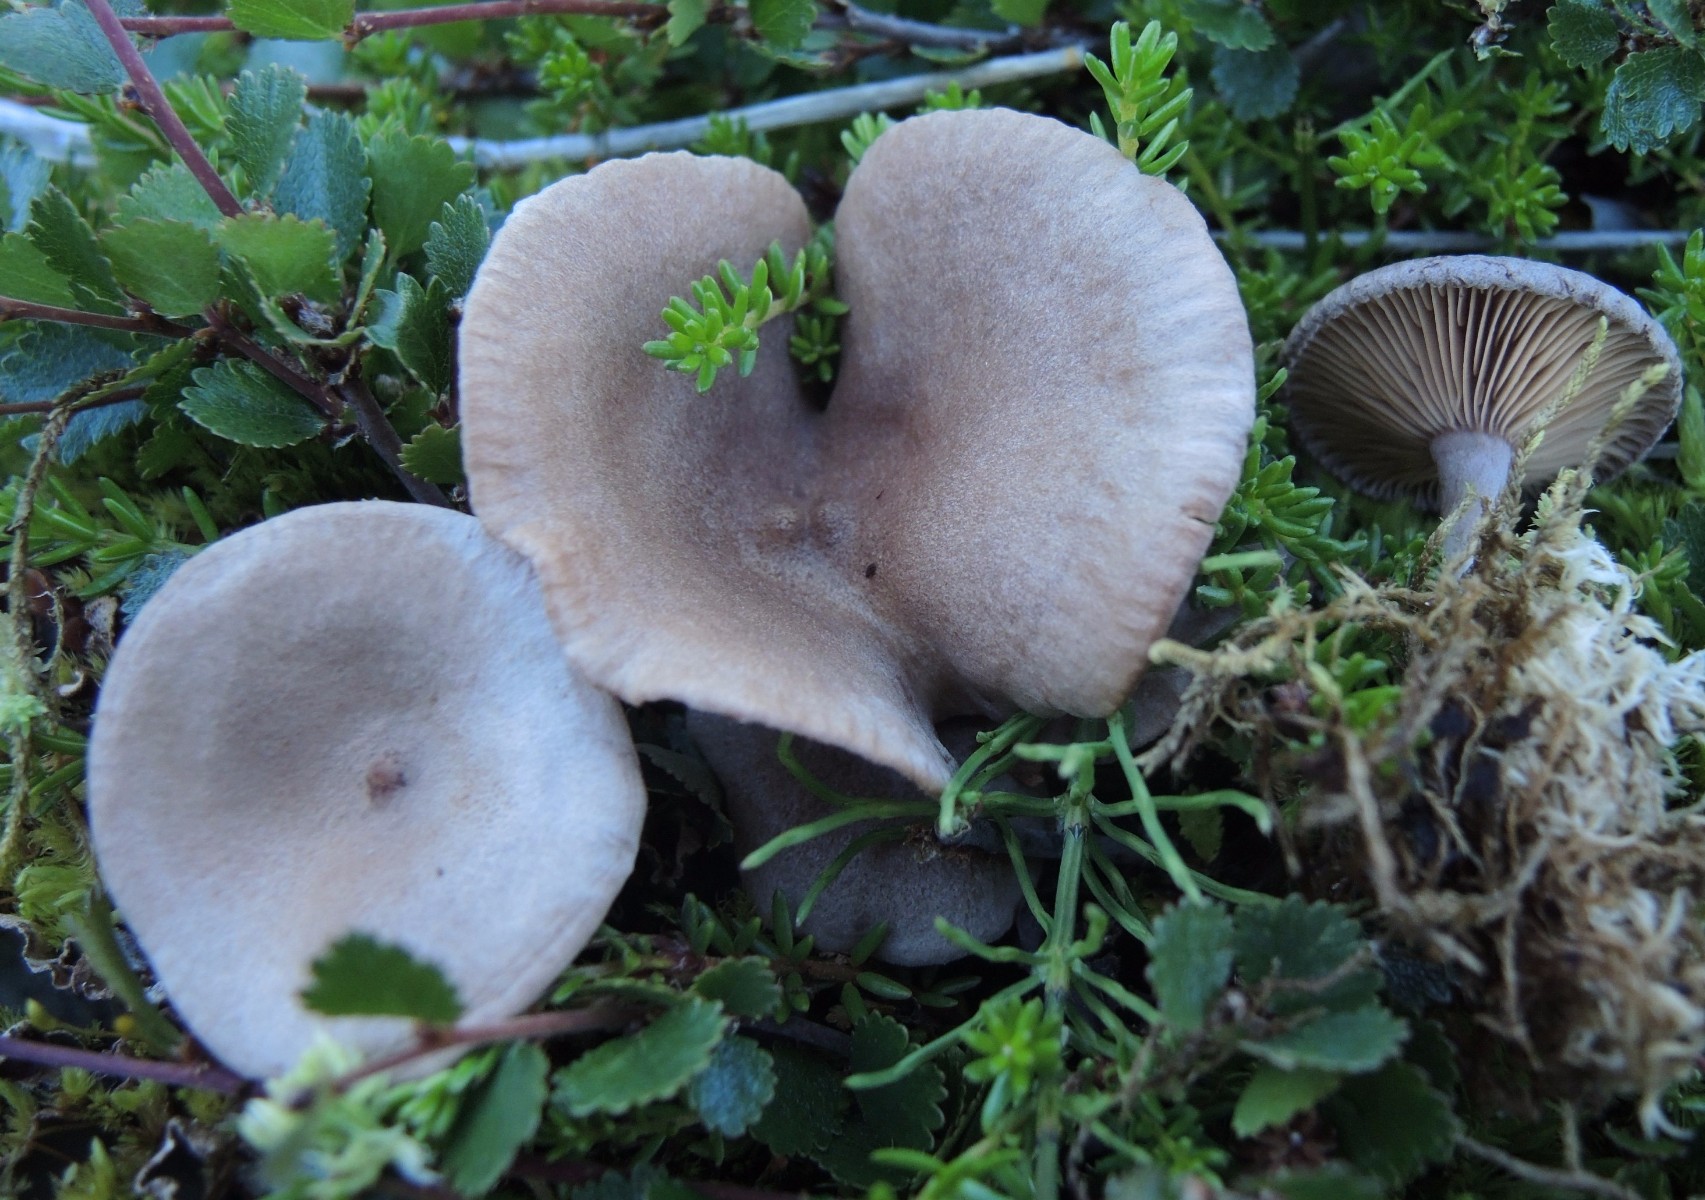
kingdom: Fungi
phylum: Basidiomycota
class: Agaricomycetes
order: Russulales
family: Russulaceae
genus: Lactarius
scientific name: Lactarius glyciosmus
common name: kokos-mælkehat
